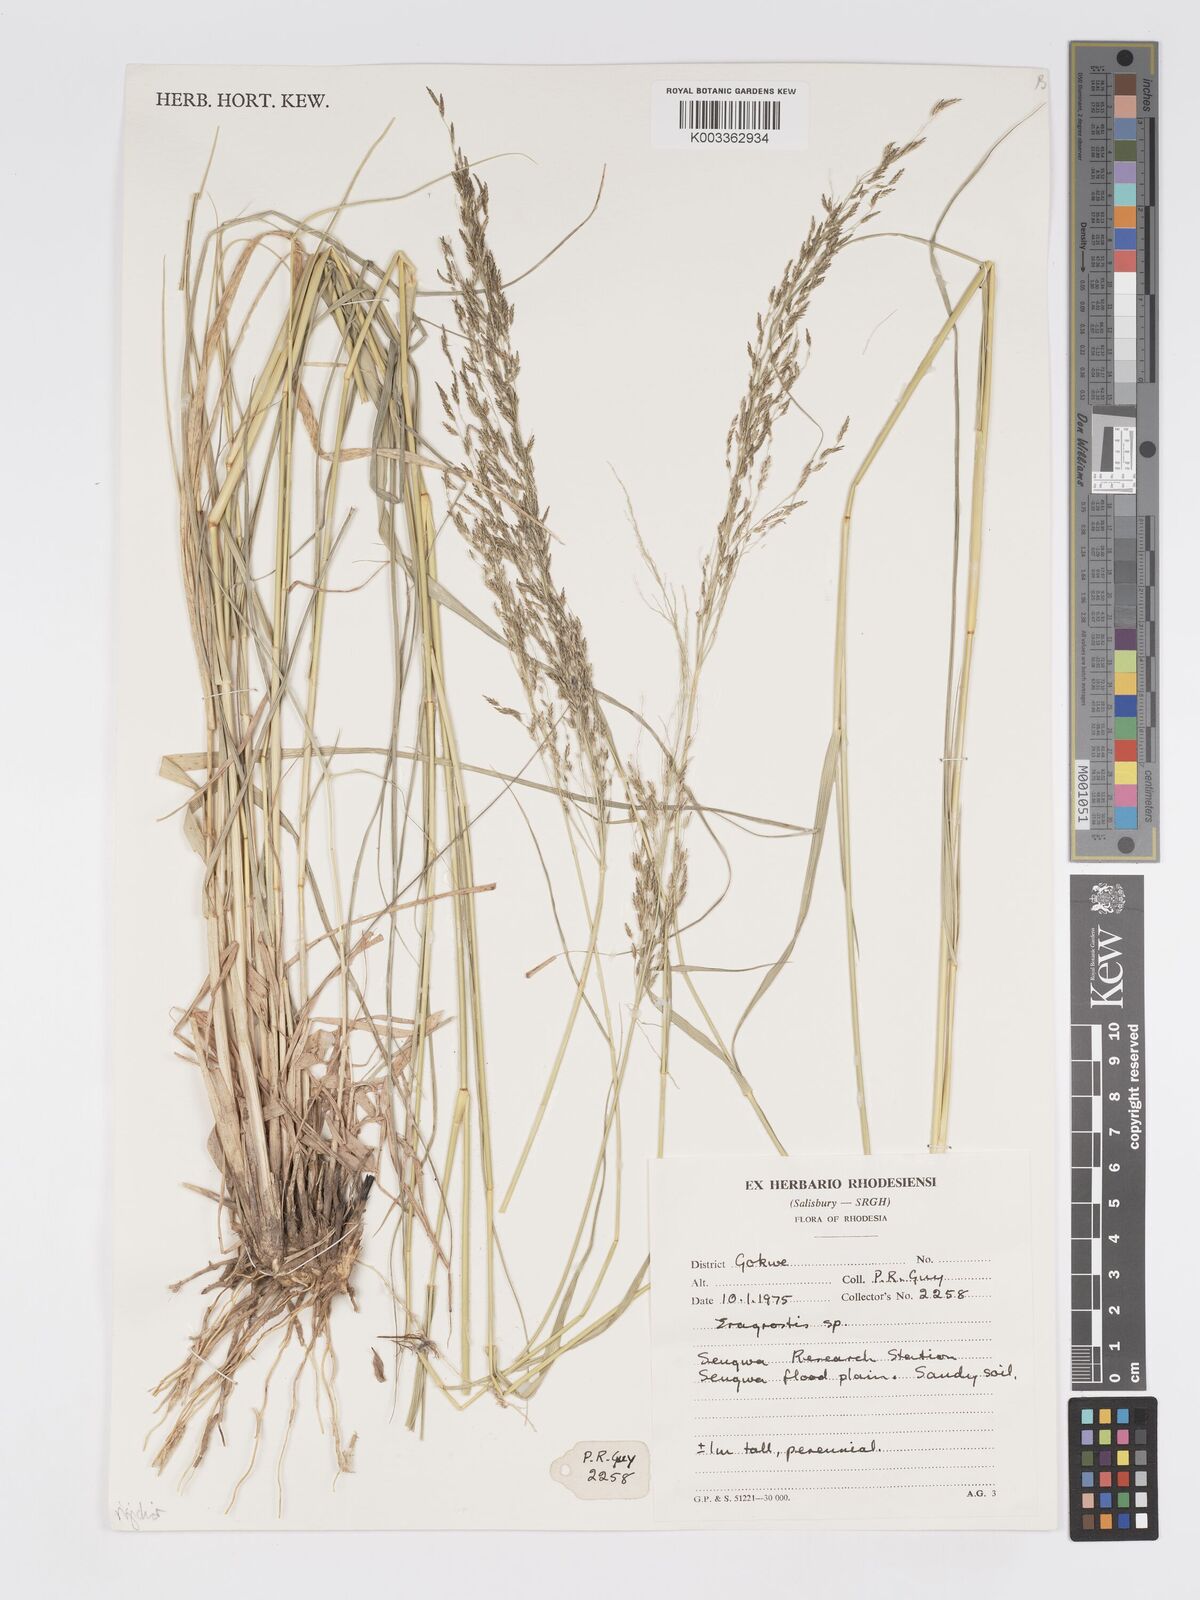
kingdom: Plantae
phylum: Tracheophyta
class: Liliopsida
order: Poales
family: Poaceae
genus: Eragrostis
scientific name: Eragrostis cylindriflora
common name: Cylinderflower lovegrass
